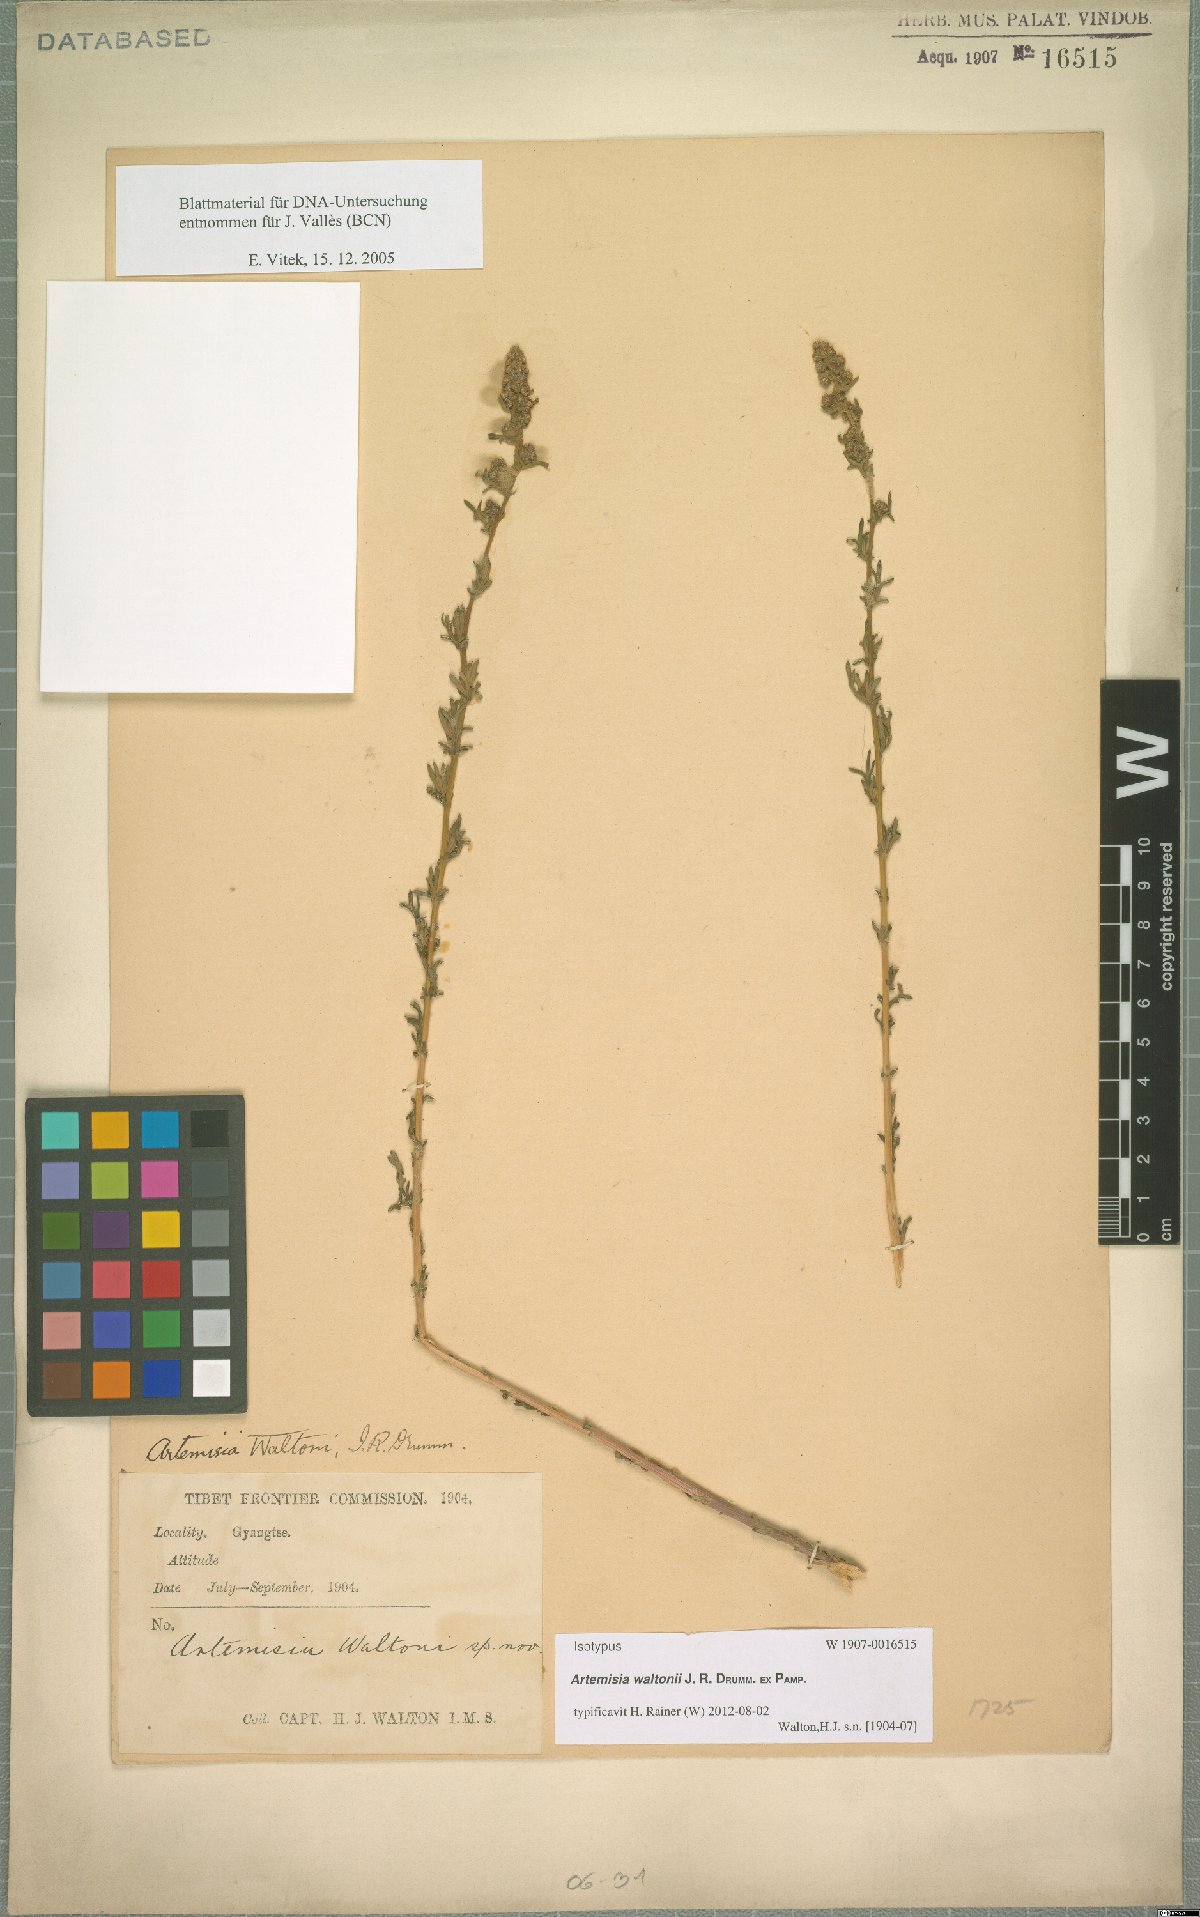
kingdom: Plantae
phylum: Tracheophyta
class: Magnoliopsida
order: Asterales
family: Asteraceae
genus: Artemisia
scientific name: Artemisia waltonii
